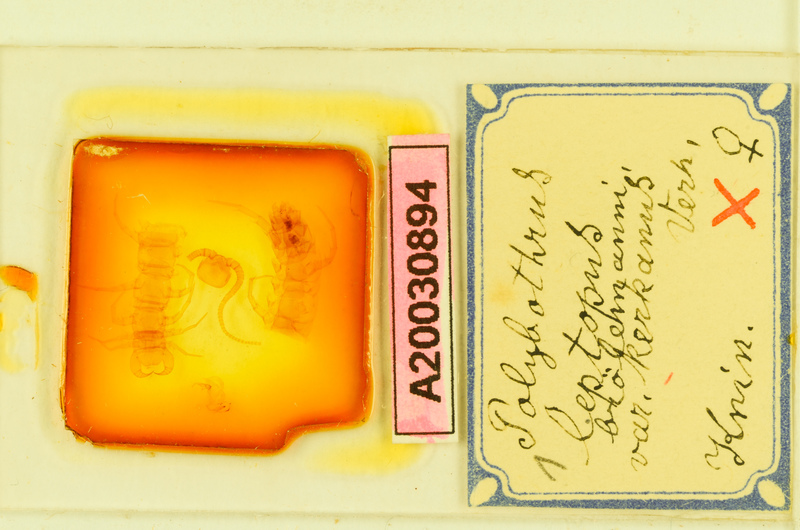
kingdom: Animalia
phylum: Arthropoda
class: Chilopoda
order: Lithobiomorpha
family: Lithobiidae
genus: Polybothrus
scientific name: Polybothrus leptopus
